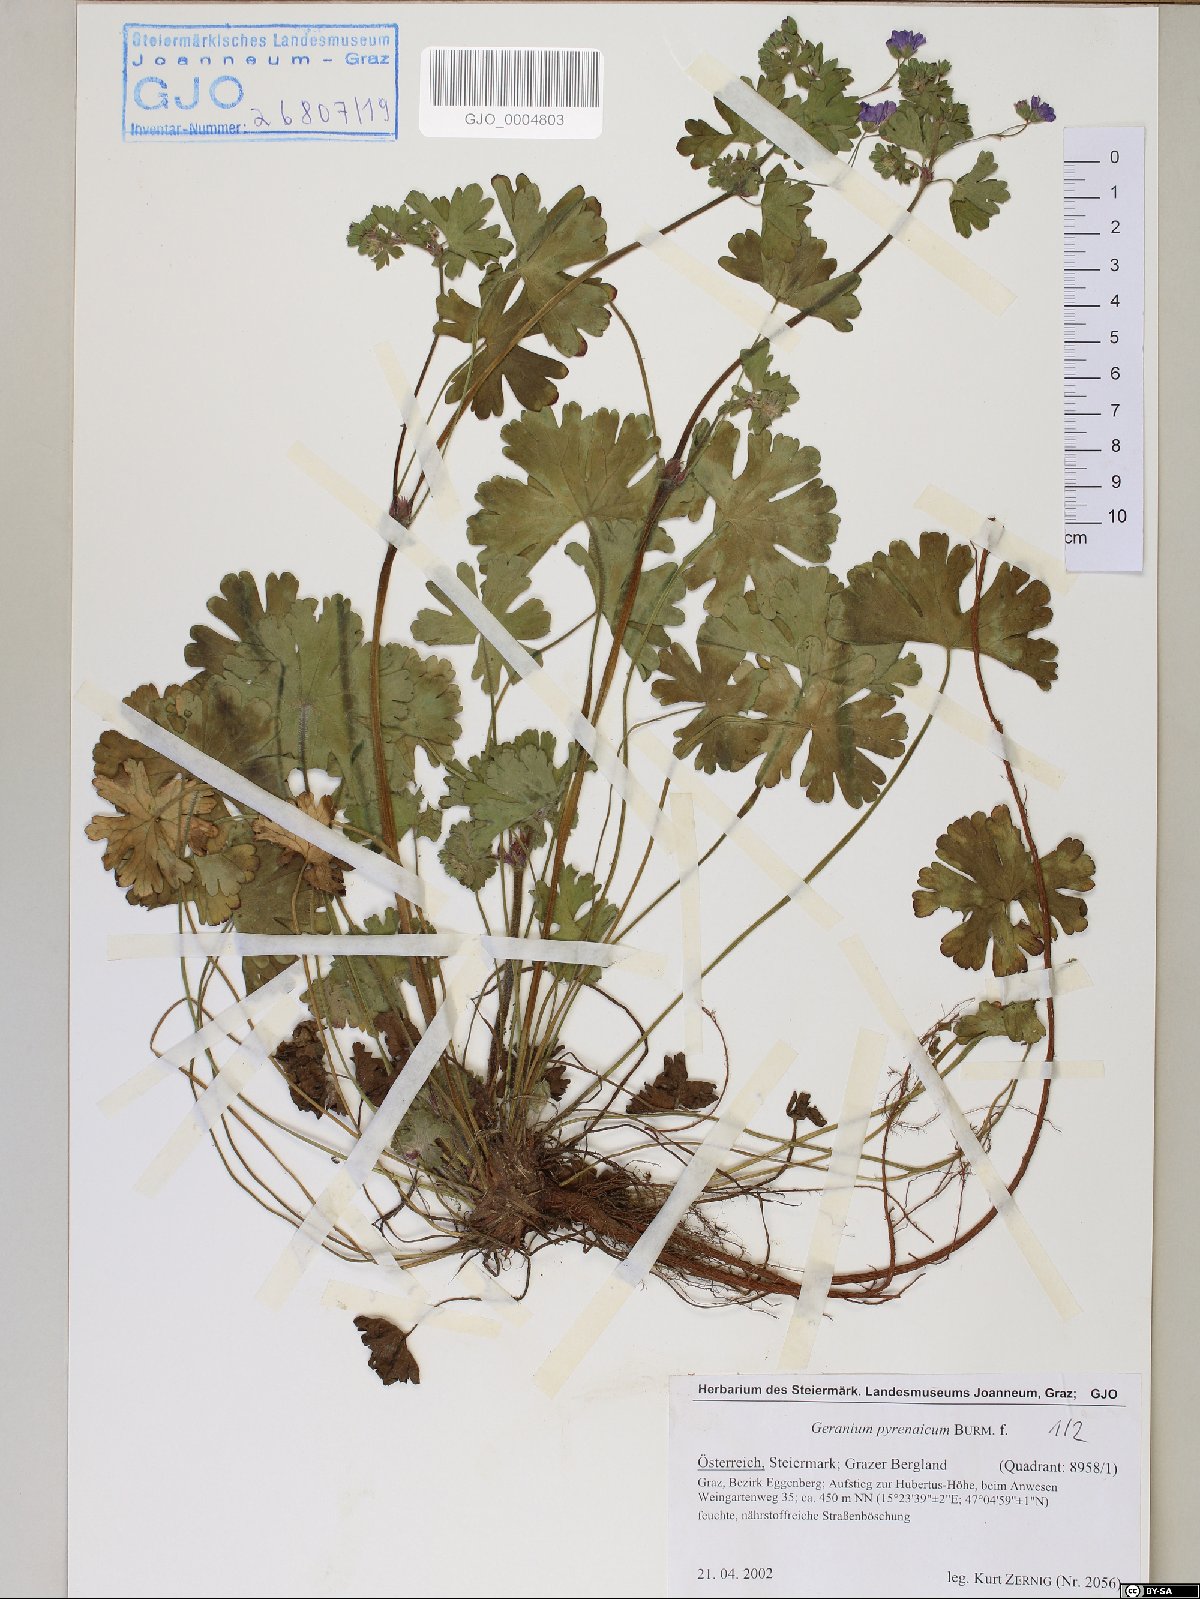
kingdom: Plantae
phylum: Tracheophyta
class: Magnoliopsida
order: Geraniales
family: Geraniaceae
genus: Geranium
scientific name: Geranium pyrenaicum
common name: Hedgerow crane's-bill
